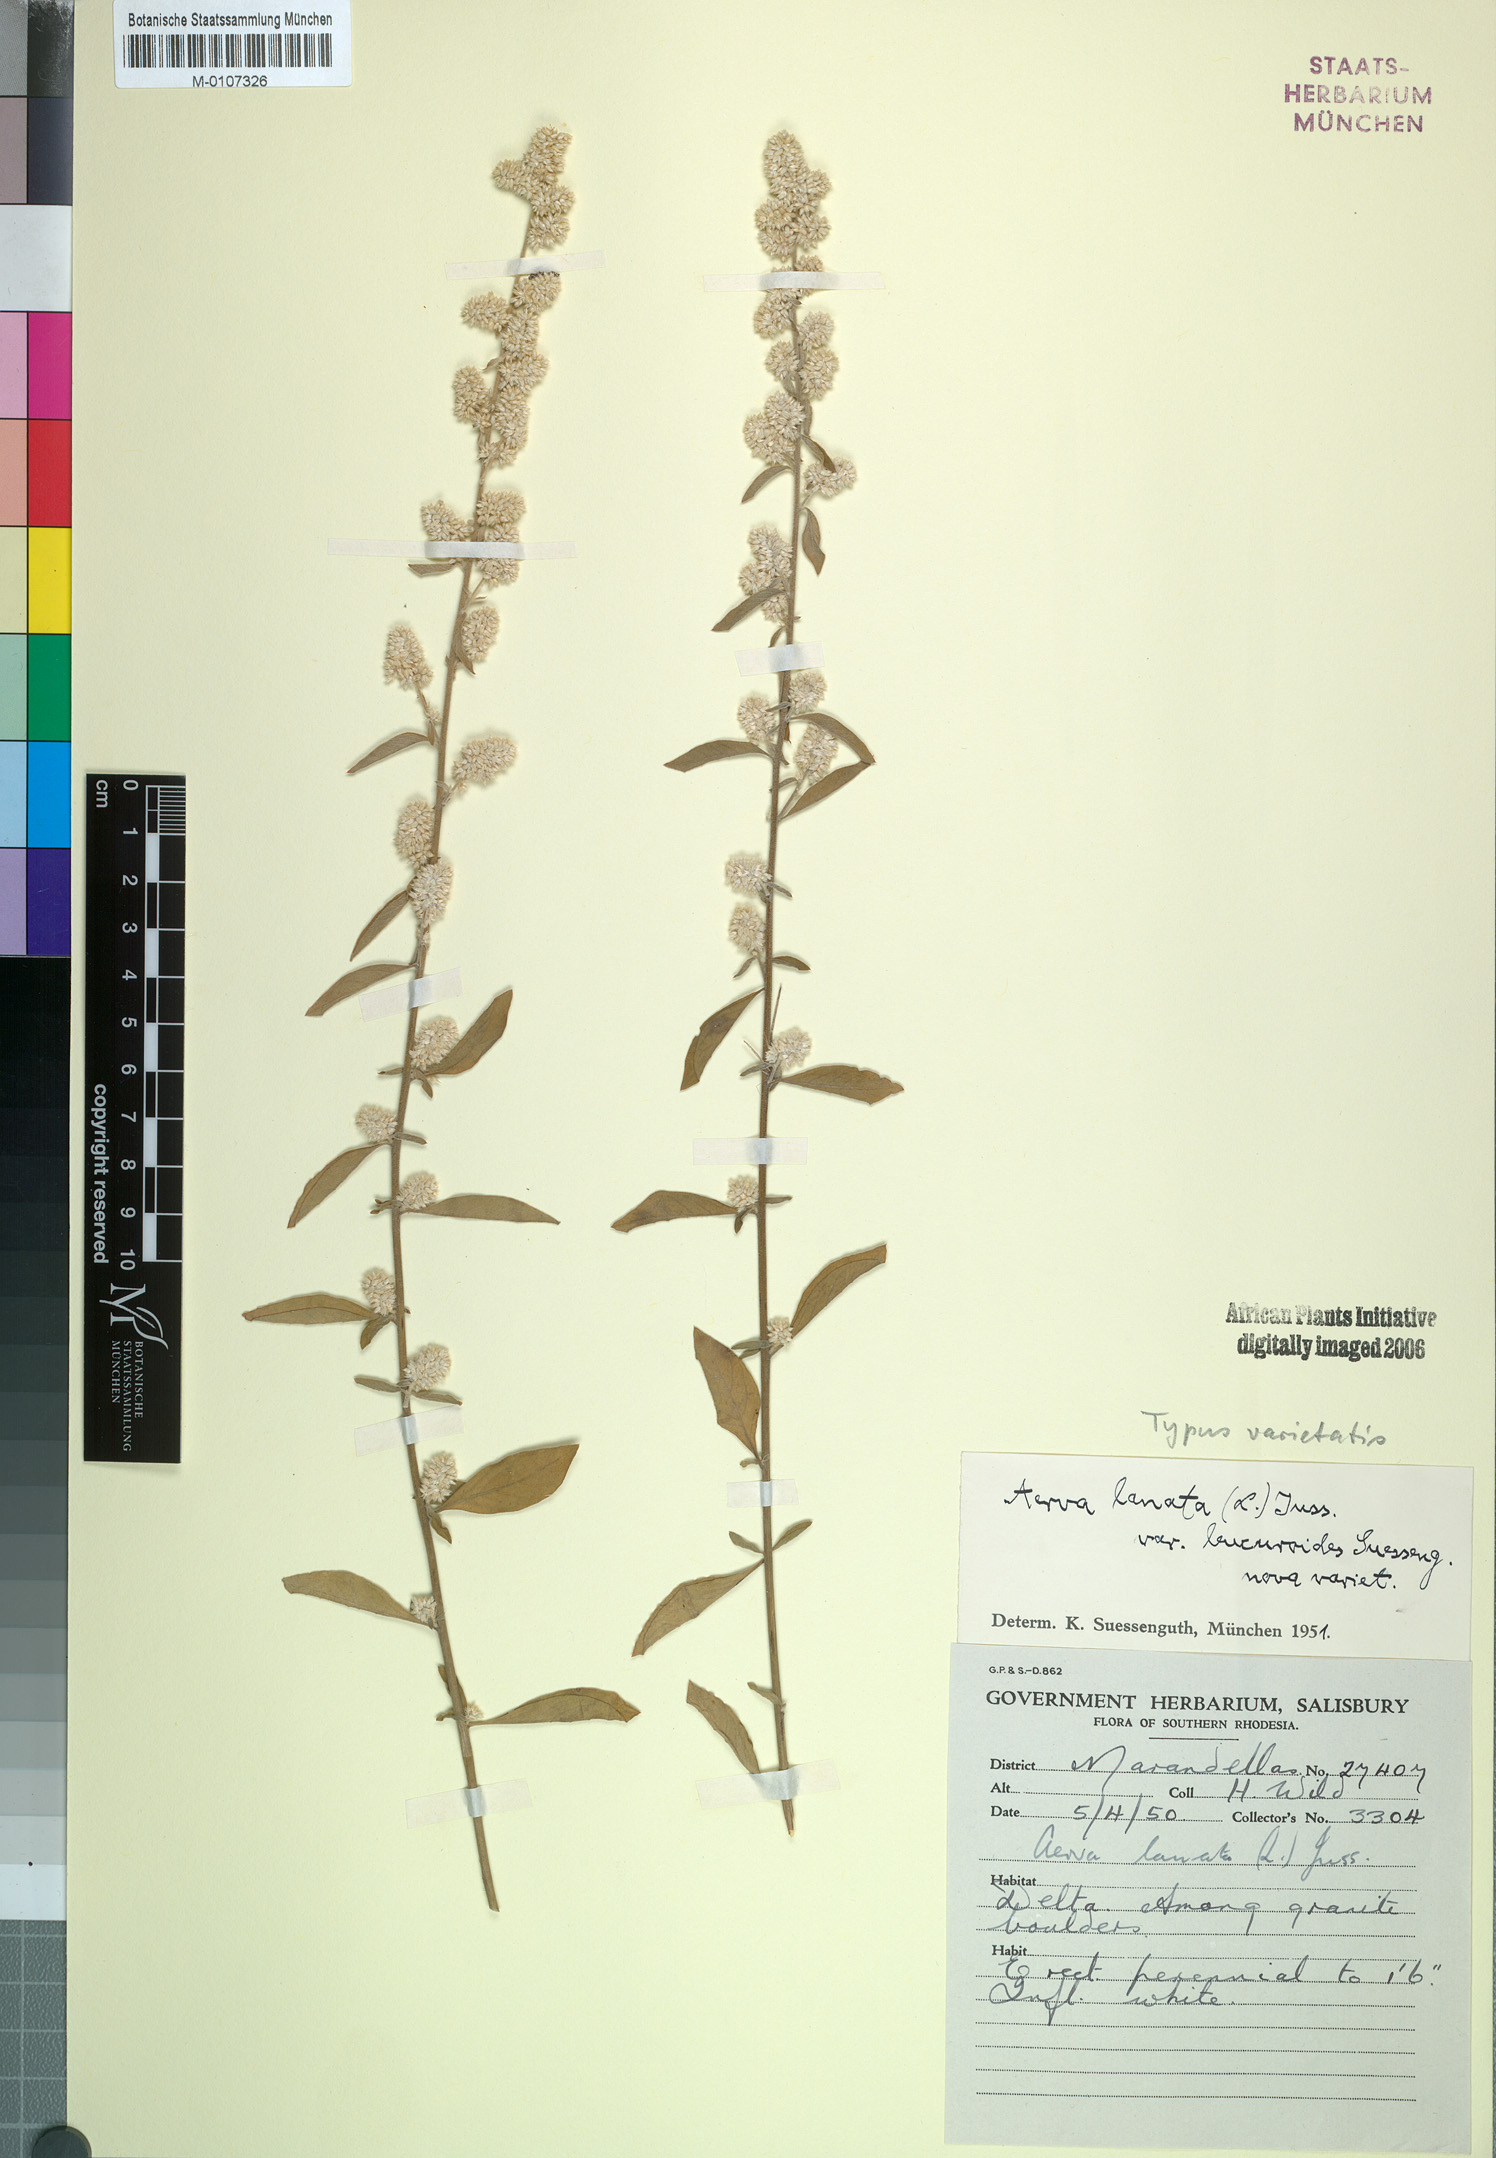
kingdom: Plantae
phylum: Tracheophyta
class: Magnoliopsida
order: Caryophyllales
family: Amaranthaceae
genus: Ouret
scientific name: Ouret lanata
